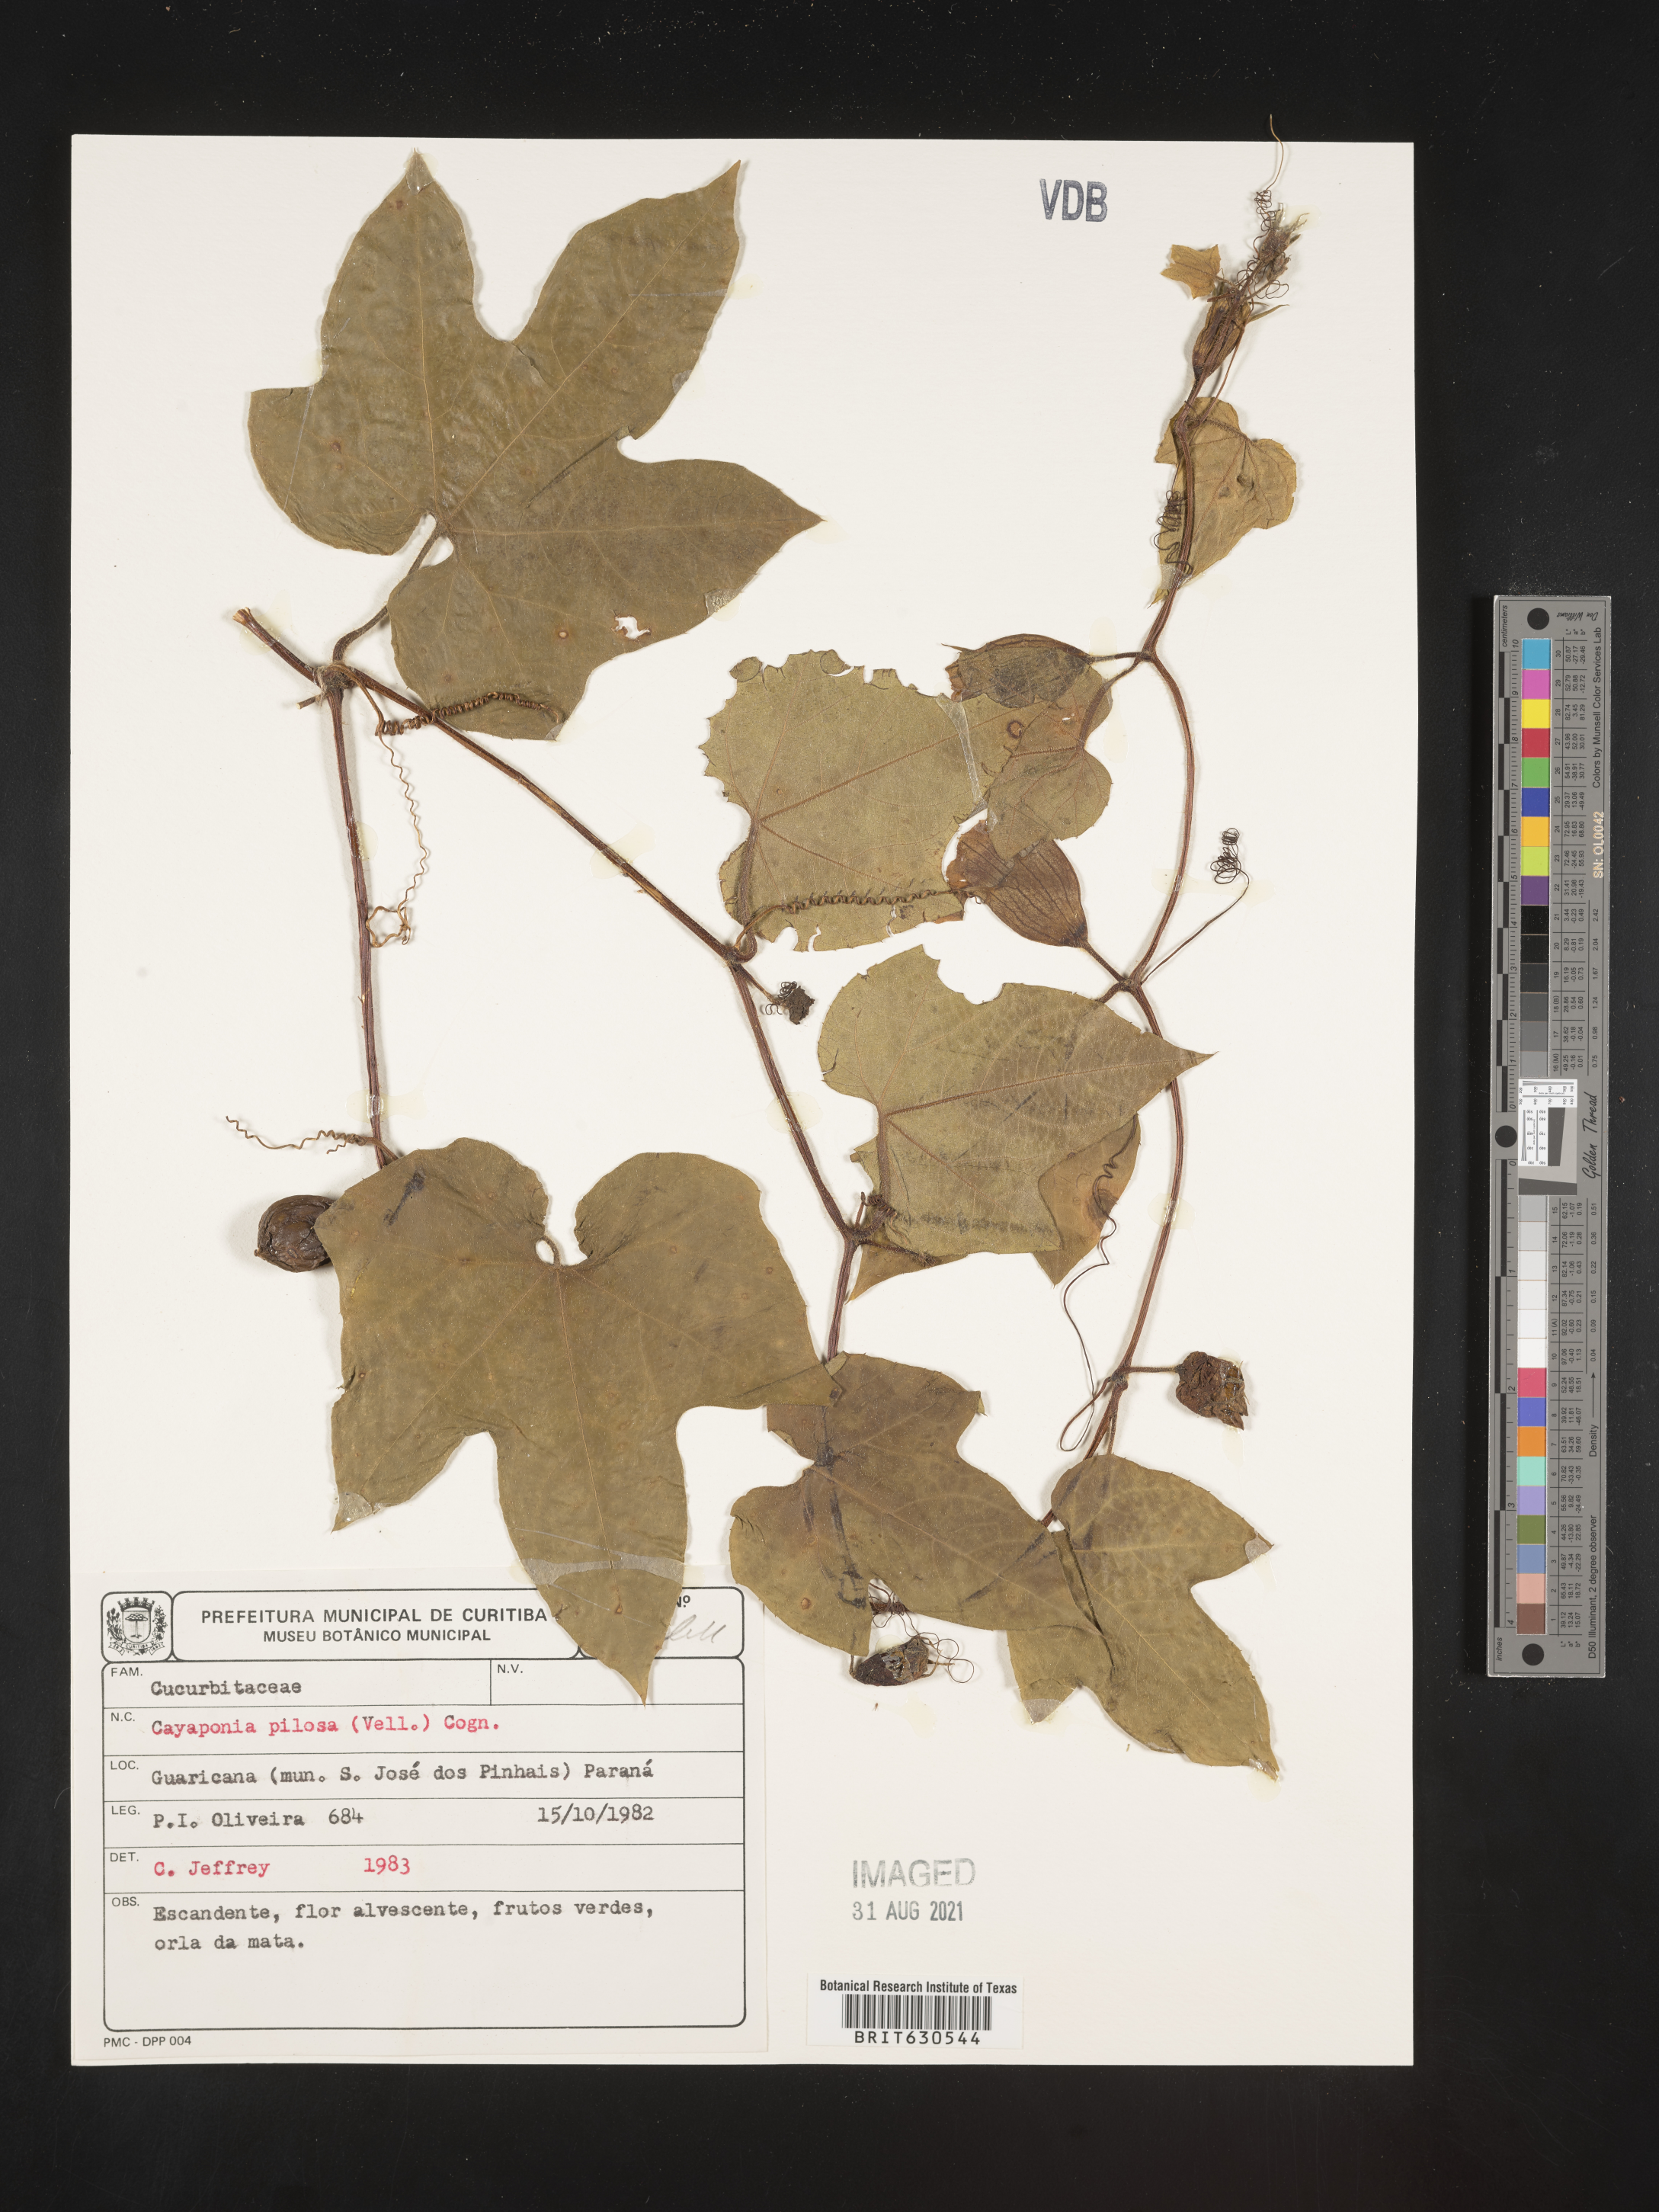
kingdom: Plantae
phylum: Tracheophyta
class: Magnoliopsida
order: Cucurbitales
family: Cucurbitaceae
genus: Cayaponia
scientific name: Cayaponia pilosa
